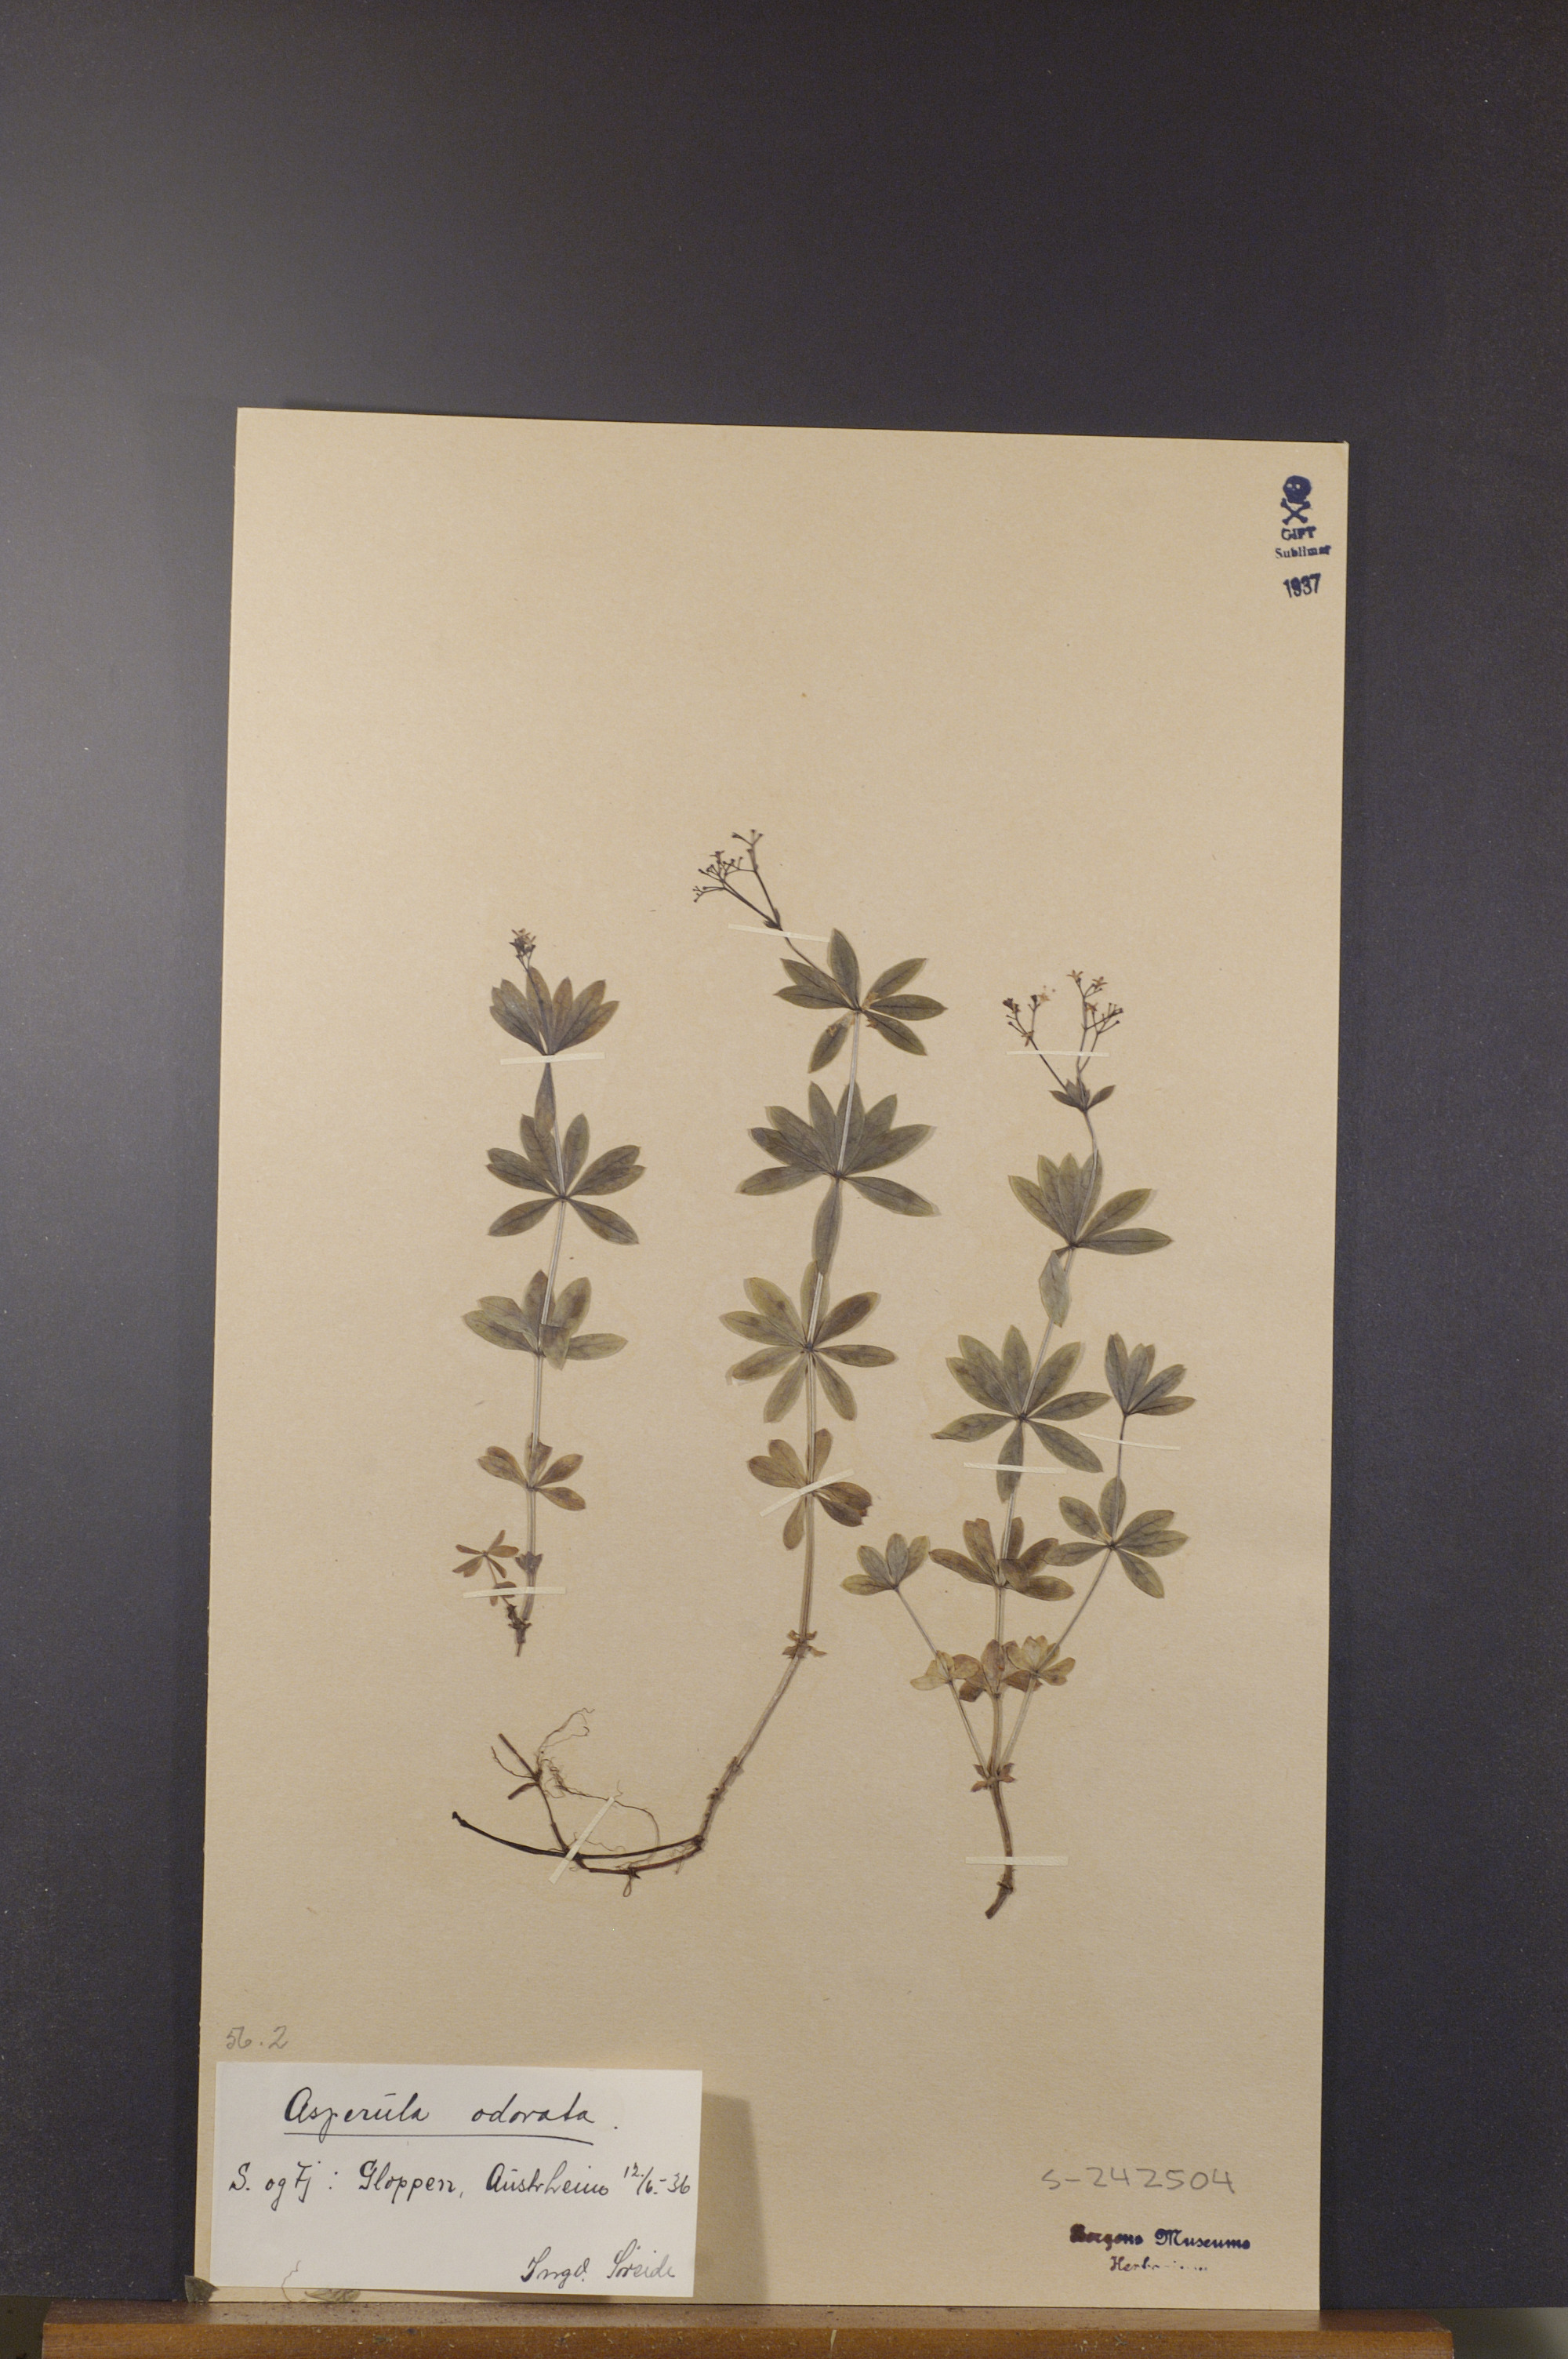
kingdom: Plantae
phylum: Tracheophyta
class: Magnoliopsida
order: Gentianales
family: Rubiaceae
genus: Galium
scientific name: Galium odoratum
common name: Sweet woodruff
